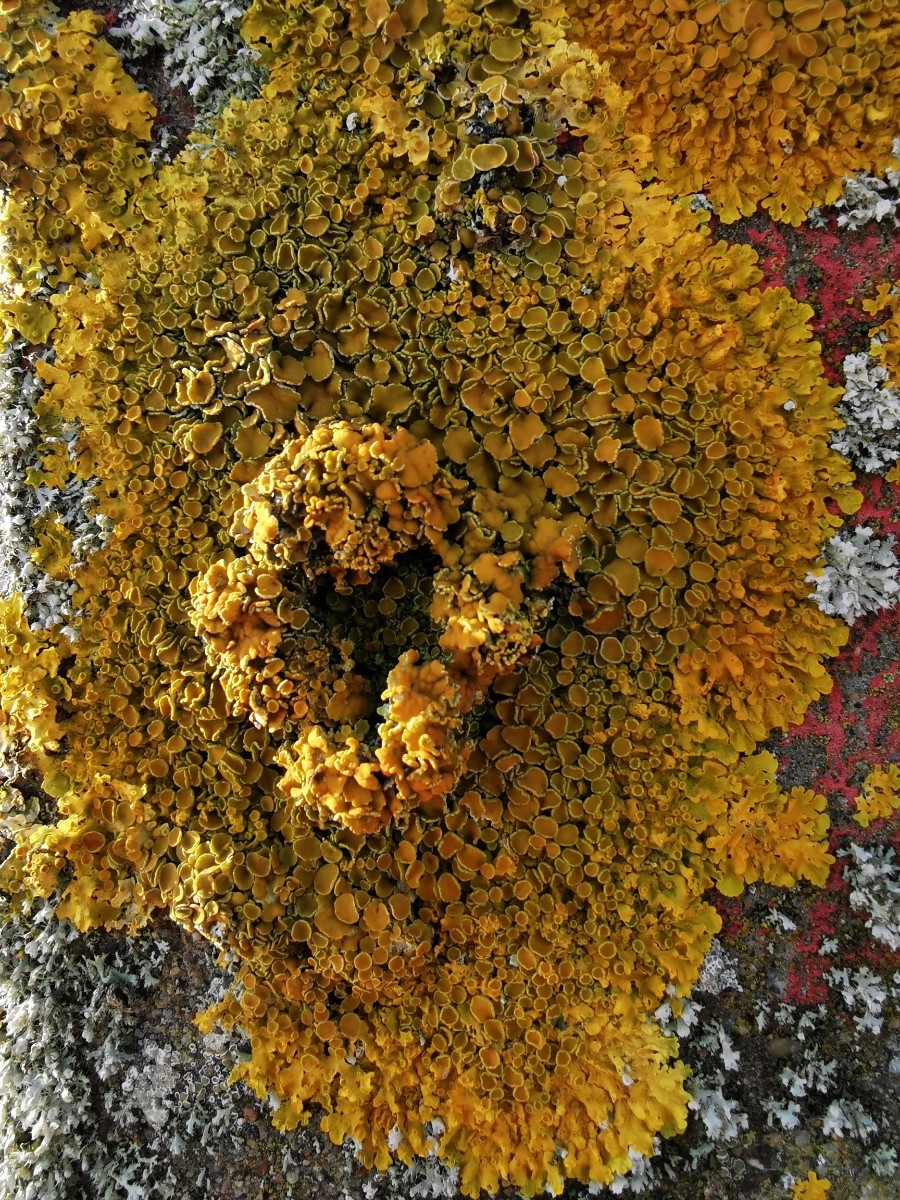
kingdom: Fungi
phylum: Ascomycota
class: Lecanoromycetes
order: Teloschistales
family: Teloschistaceae
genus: Xanthoria
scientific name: Xanthoria parietina
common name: almindelig væggelav
